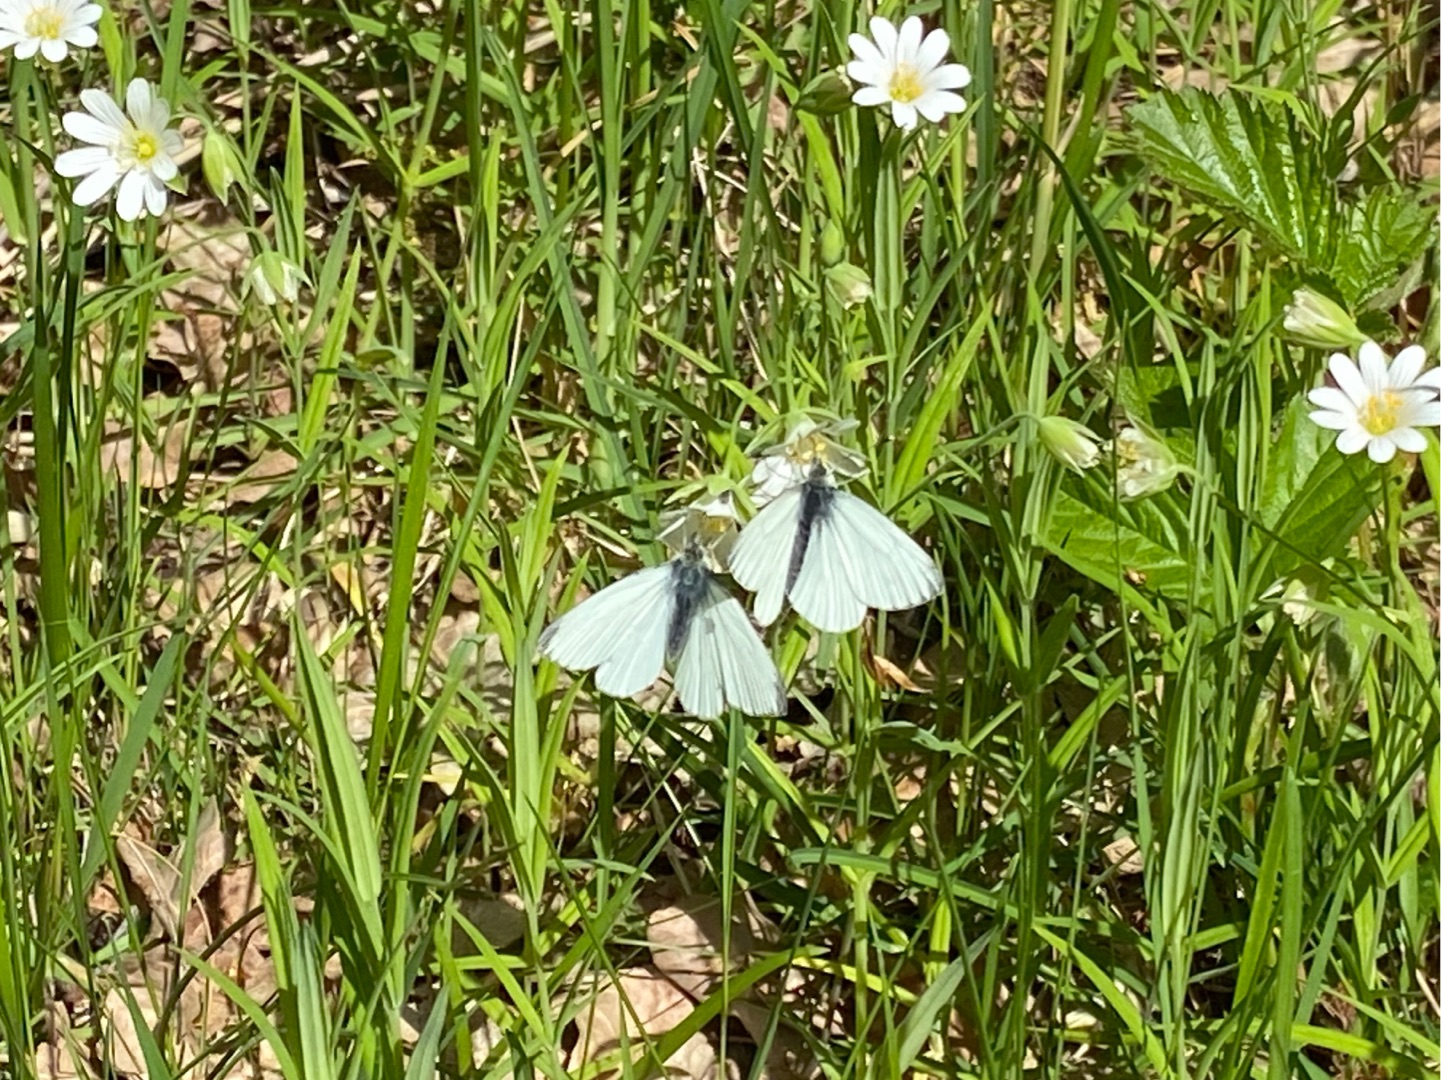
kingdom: Animalia
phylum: Arthropoda
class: Insecta
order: Lepidoptera
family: Pieridae
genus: Pieris
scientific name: Pieris napi
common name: Grønåret kålsommerfugl
